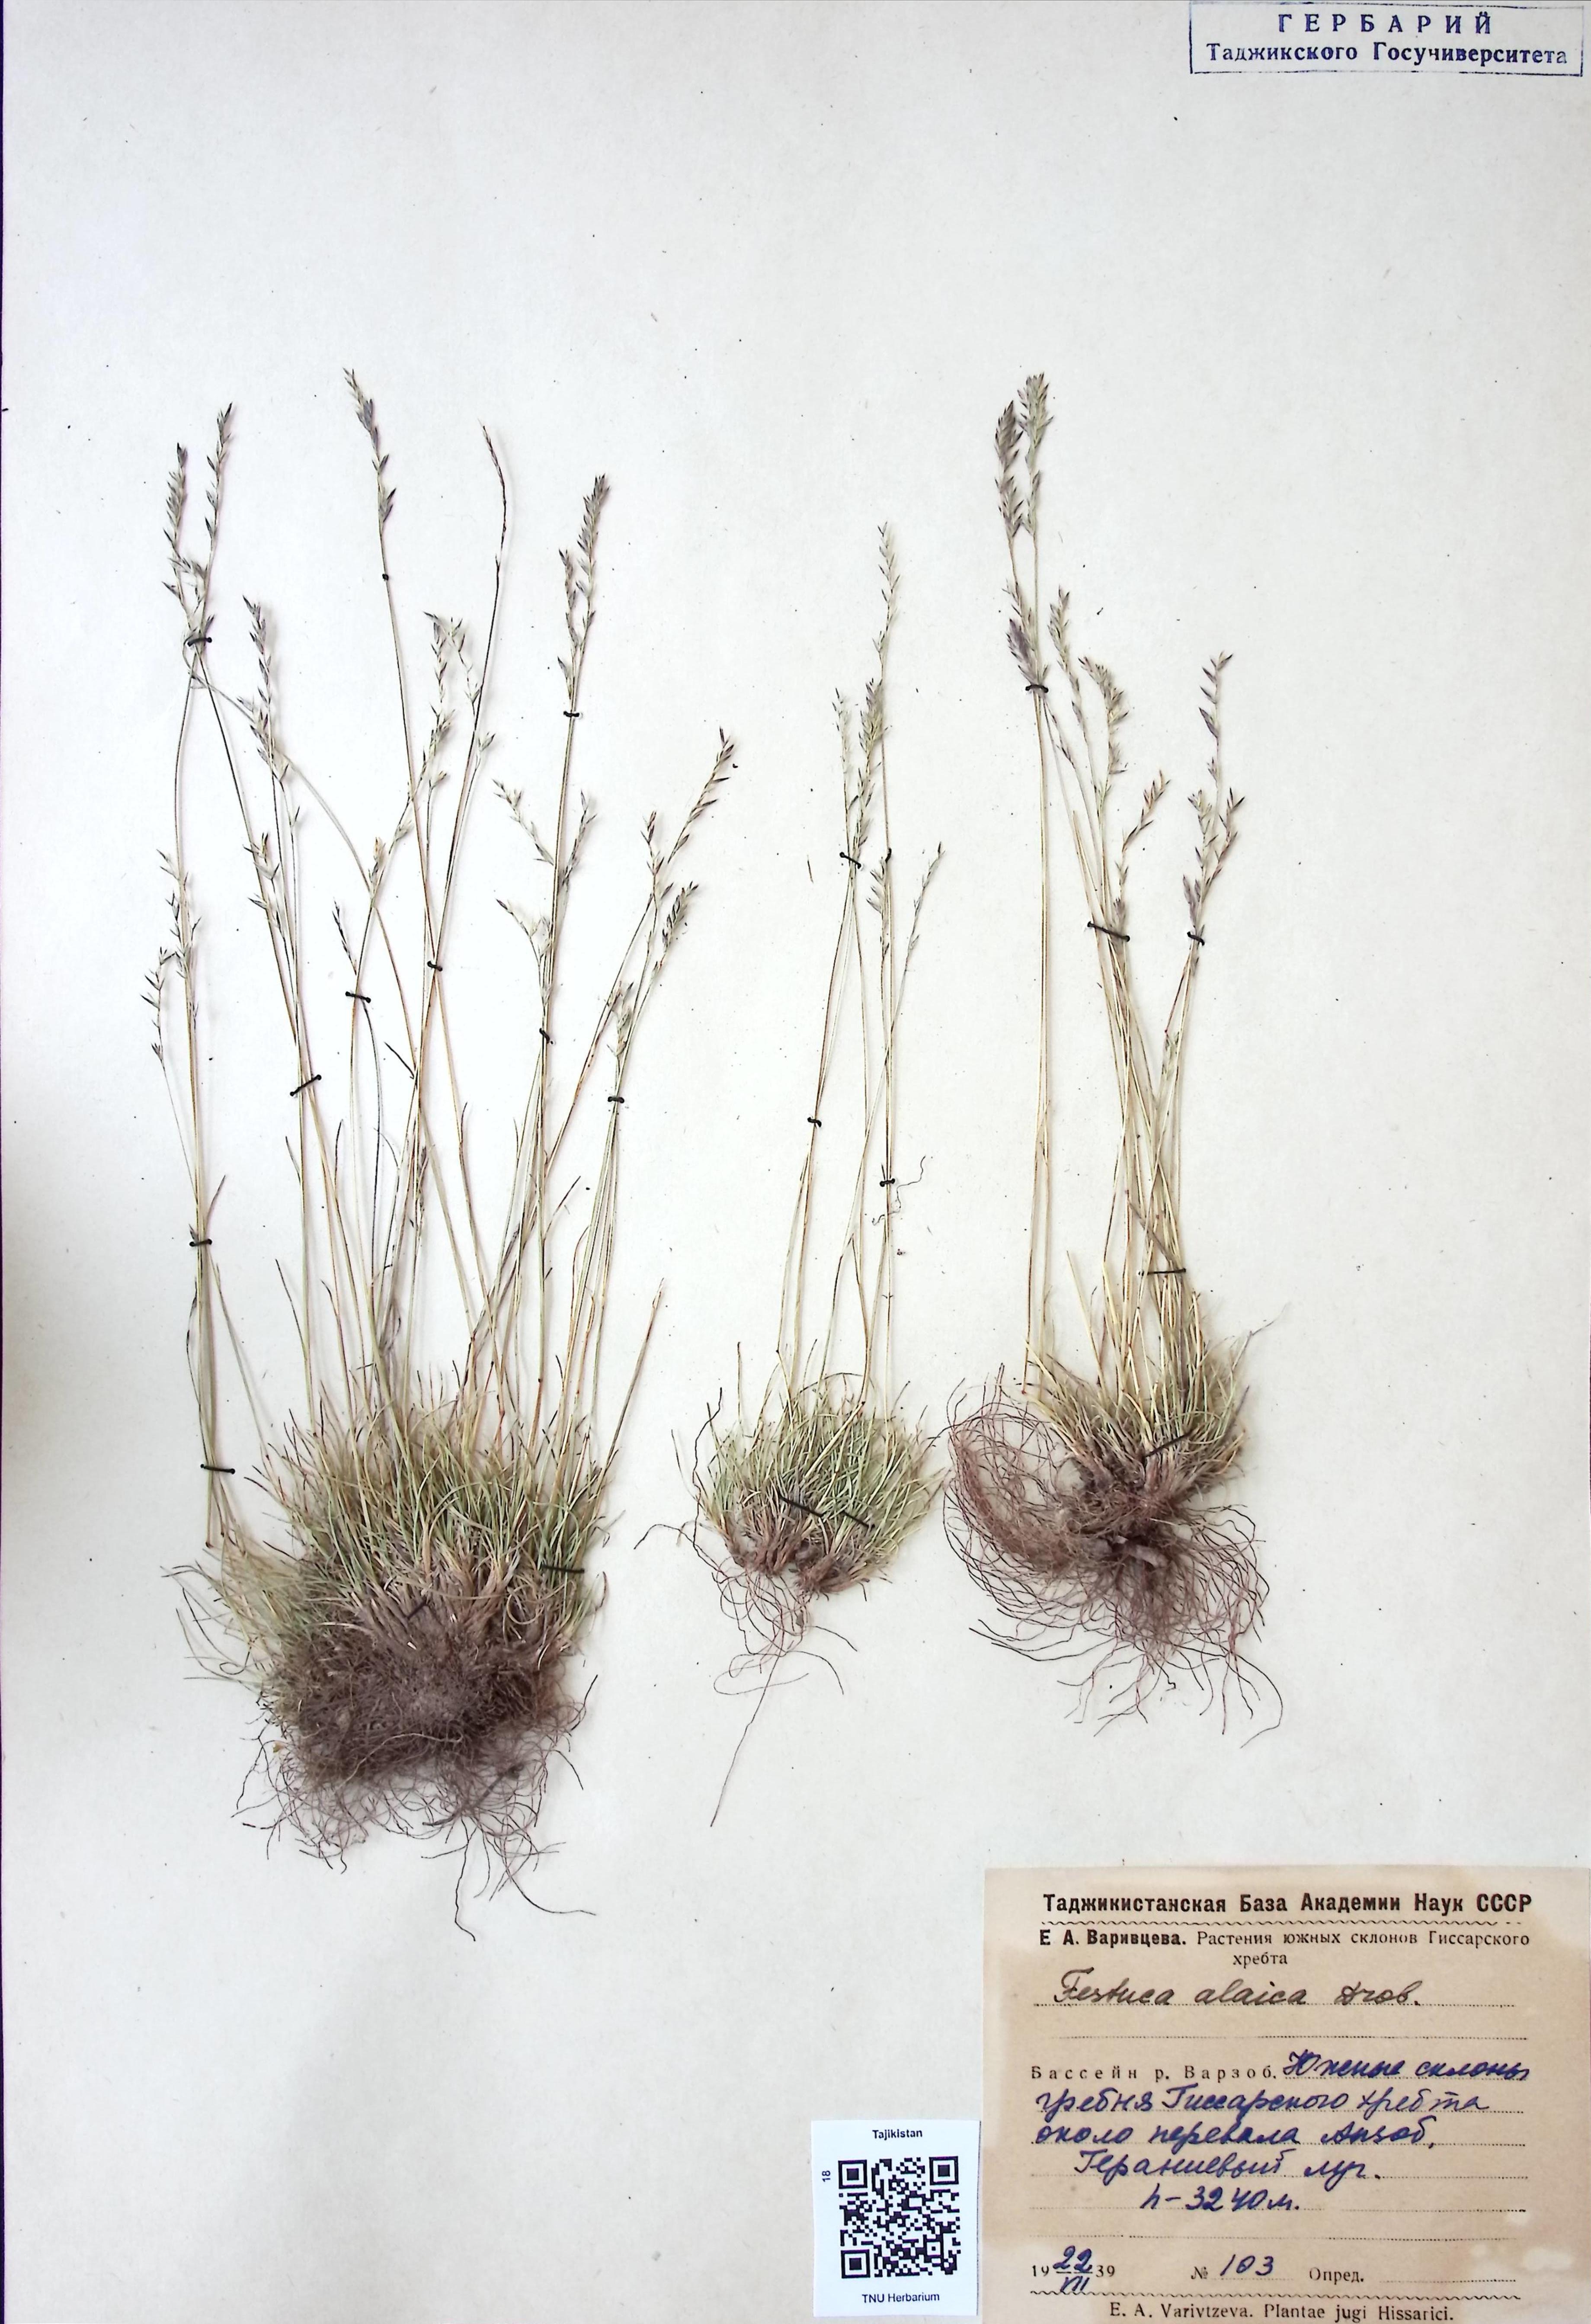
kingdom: Plantae
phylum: Tracheophyta
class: Liliopsida
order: Poales
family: Poaceae
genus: Festuca
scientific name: Festuca alaica
